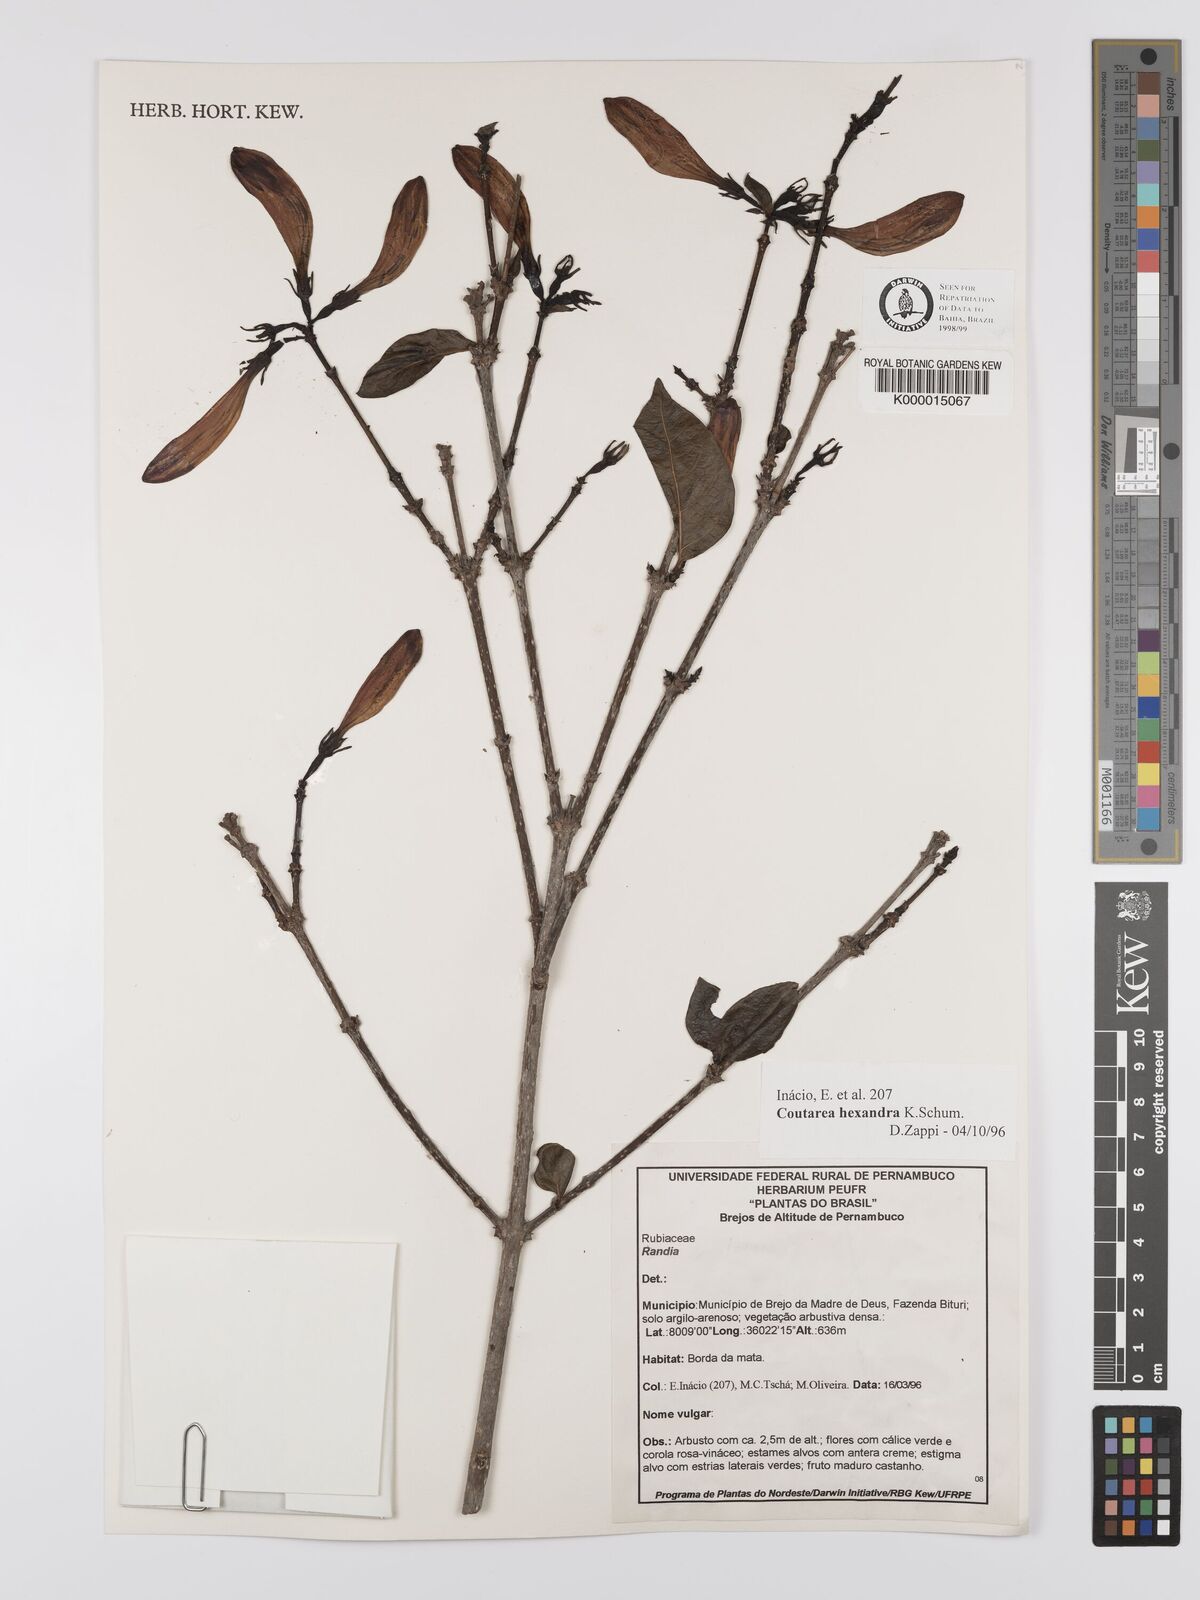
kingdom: Plantae
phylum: Tracheophyta
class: Magnoliopsida
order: Gentianales
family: Rubiaceae
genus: Coutarea
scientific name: Coutarea hexandra
